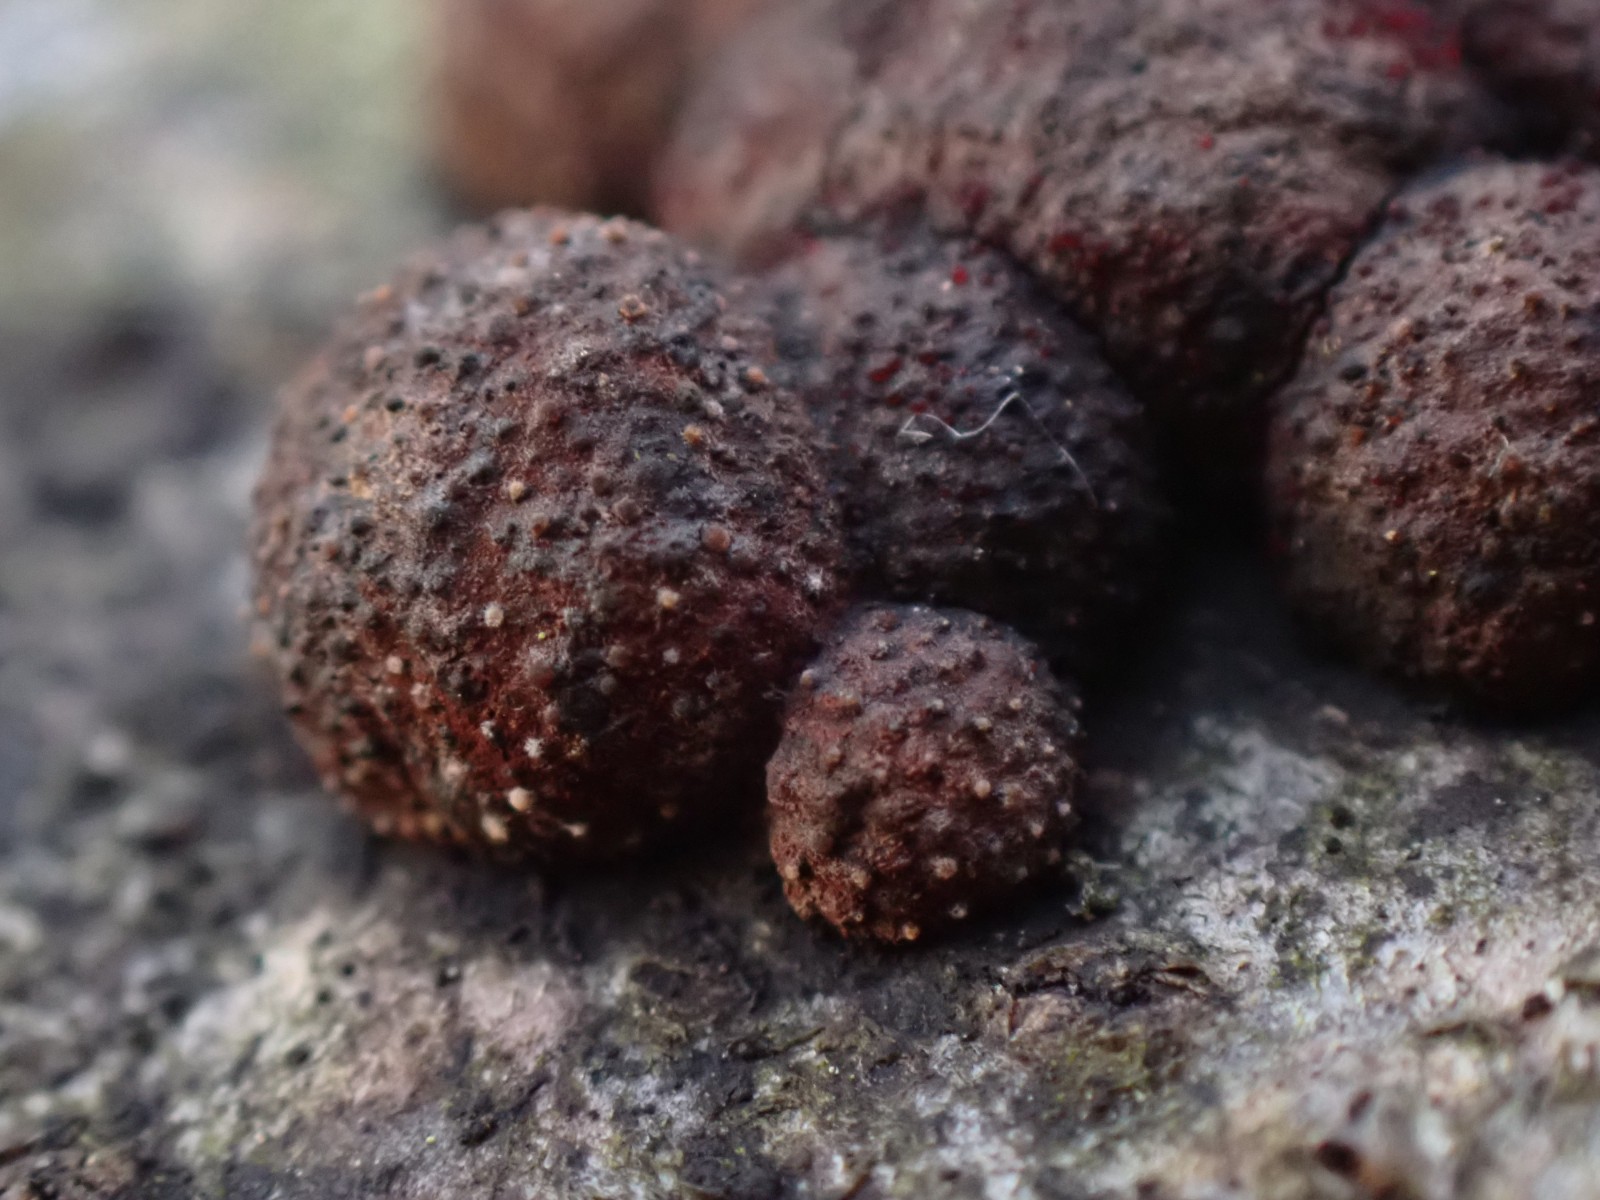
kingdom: Fungi
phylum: Ascomycota
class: Sordariomycetes
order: Xylariales
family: Hypoxylaceae
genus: Hypoxylon
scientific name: Hypoxylon fragiforme
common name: kuljordbær
